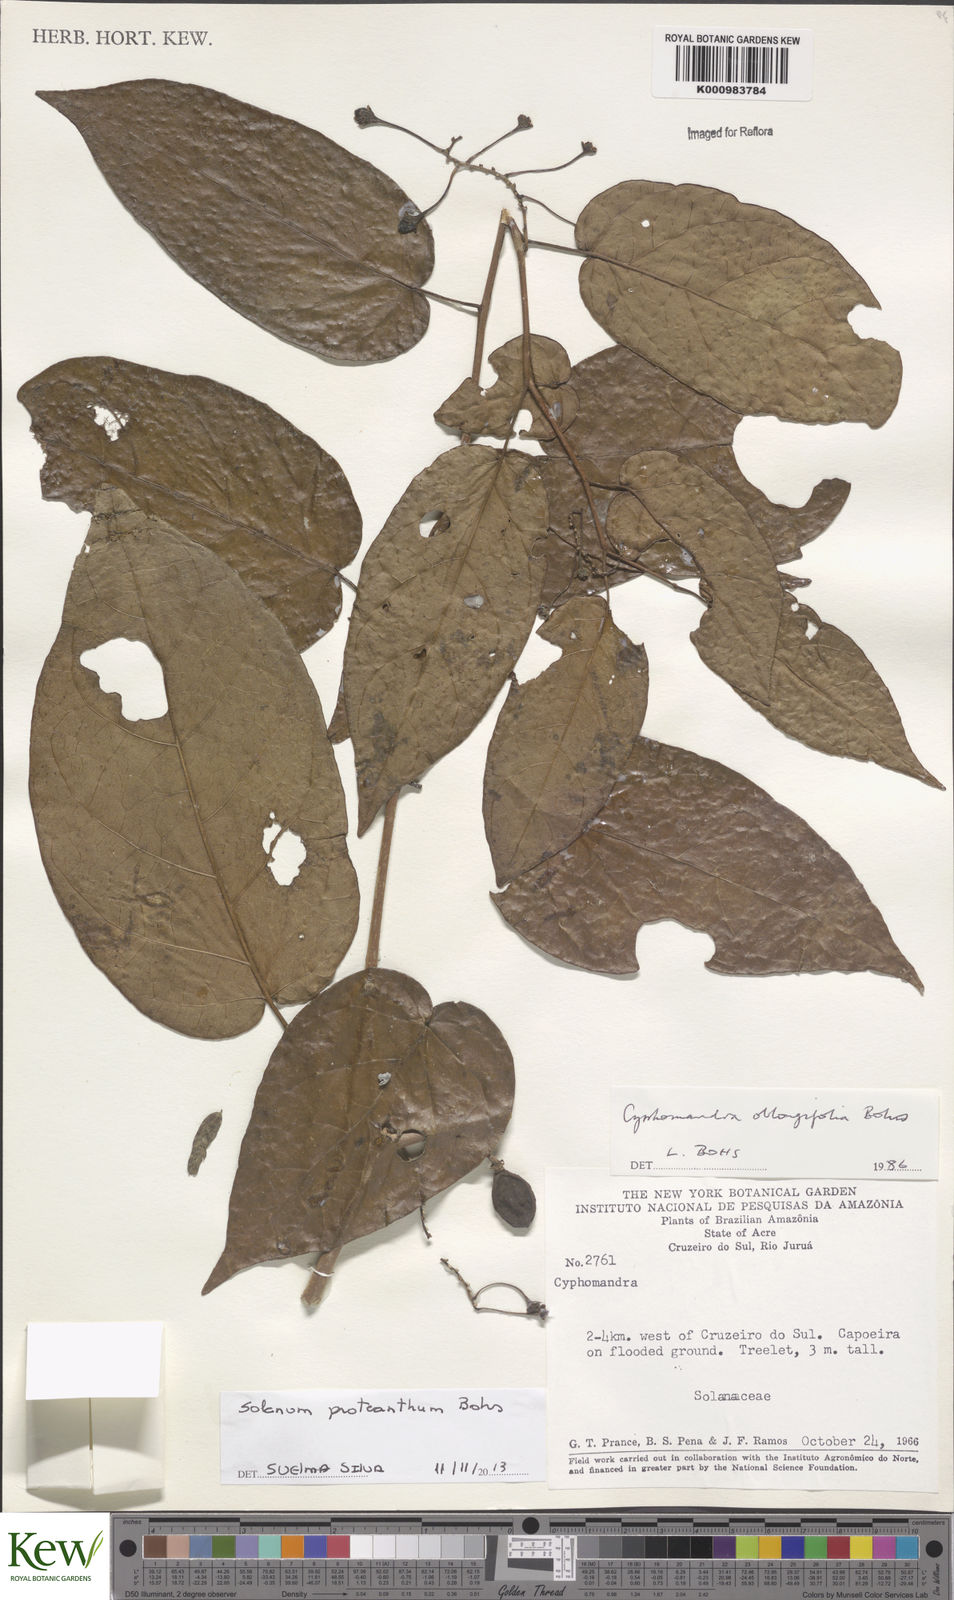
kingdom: Plantae
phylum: Tracheophyta
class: Magnoliopsida
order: Solanales
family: Solanaceae
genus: Solanum
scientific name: Solanum proteanthum
